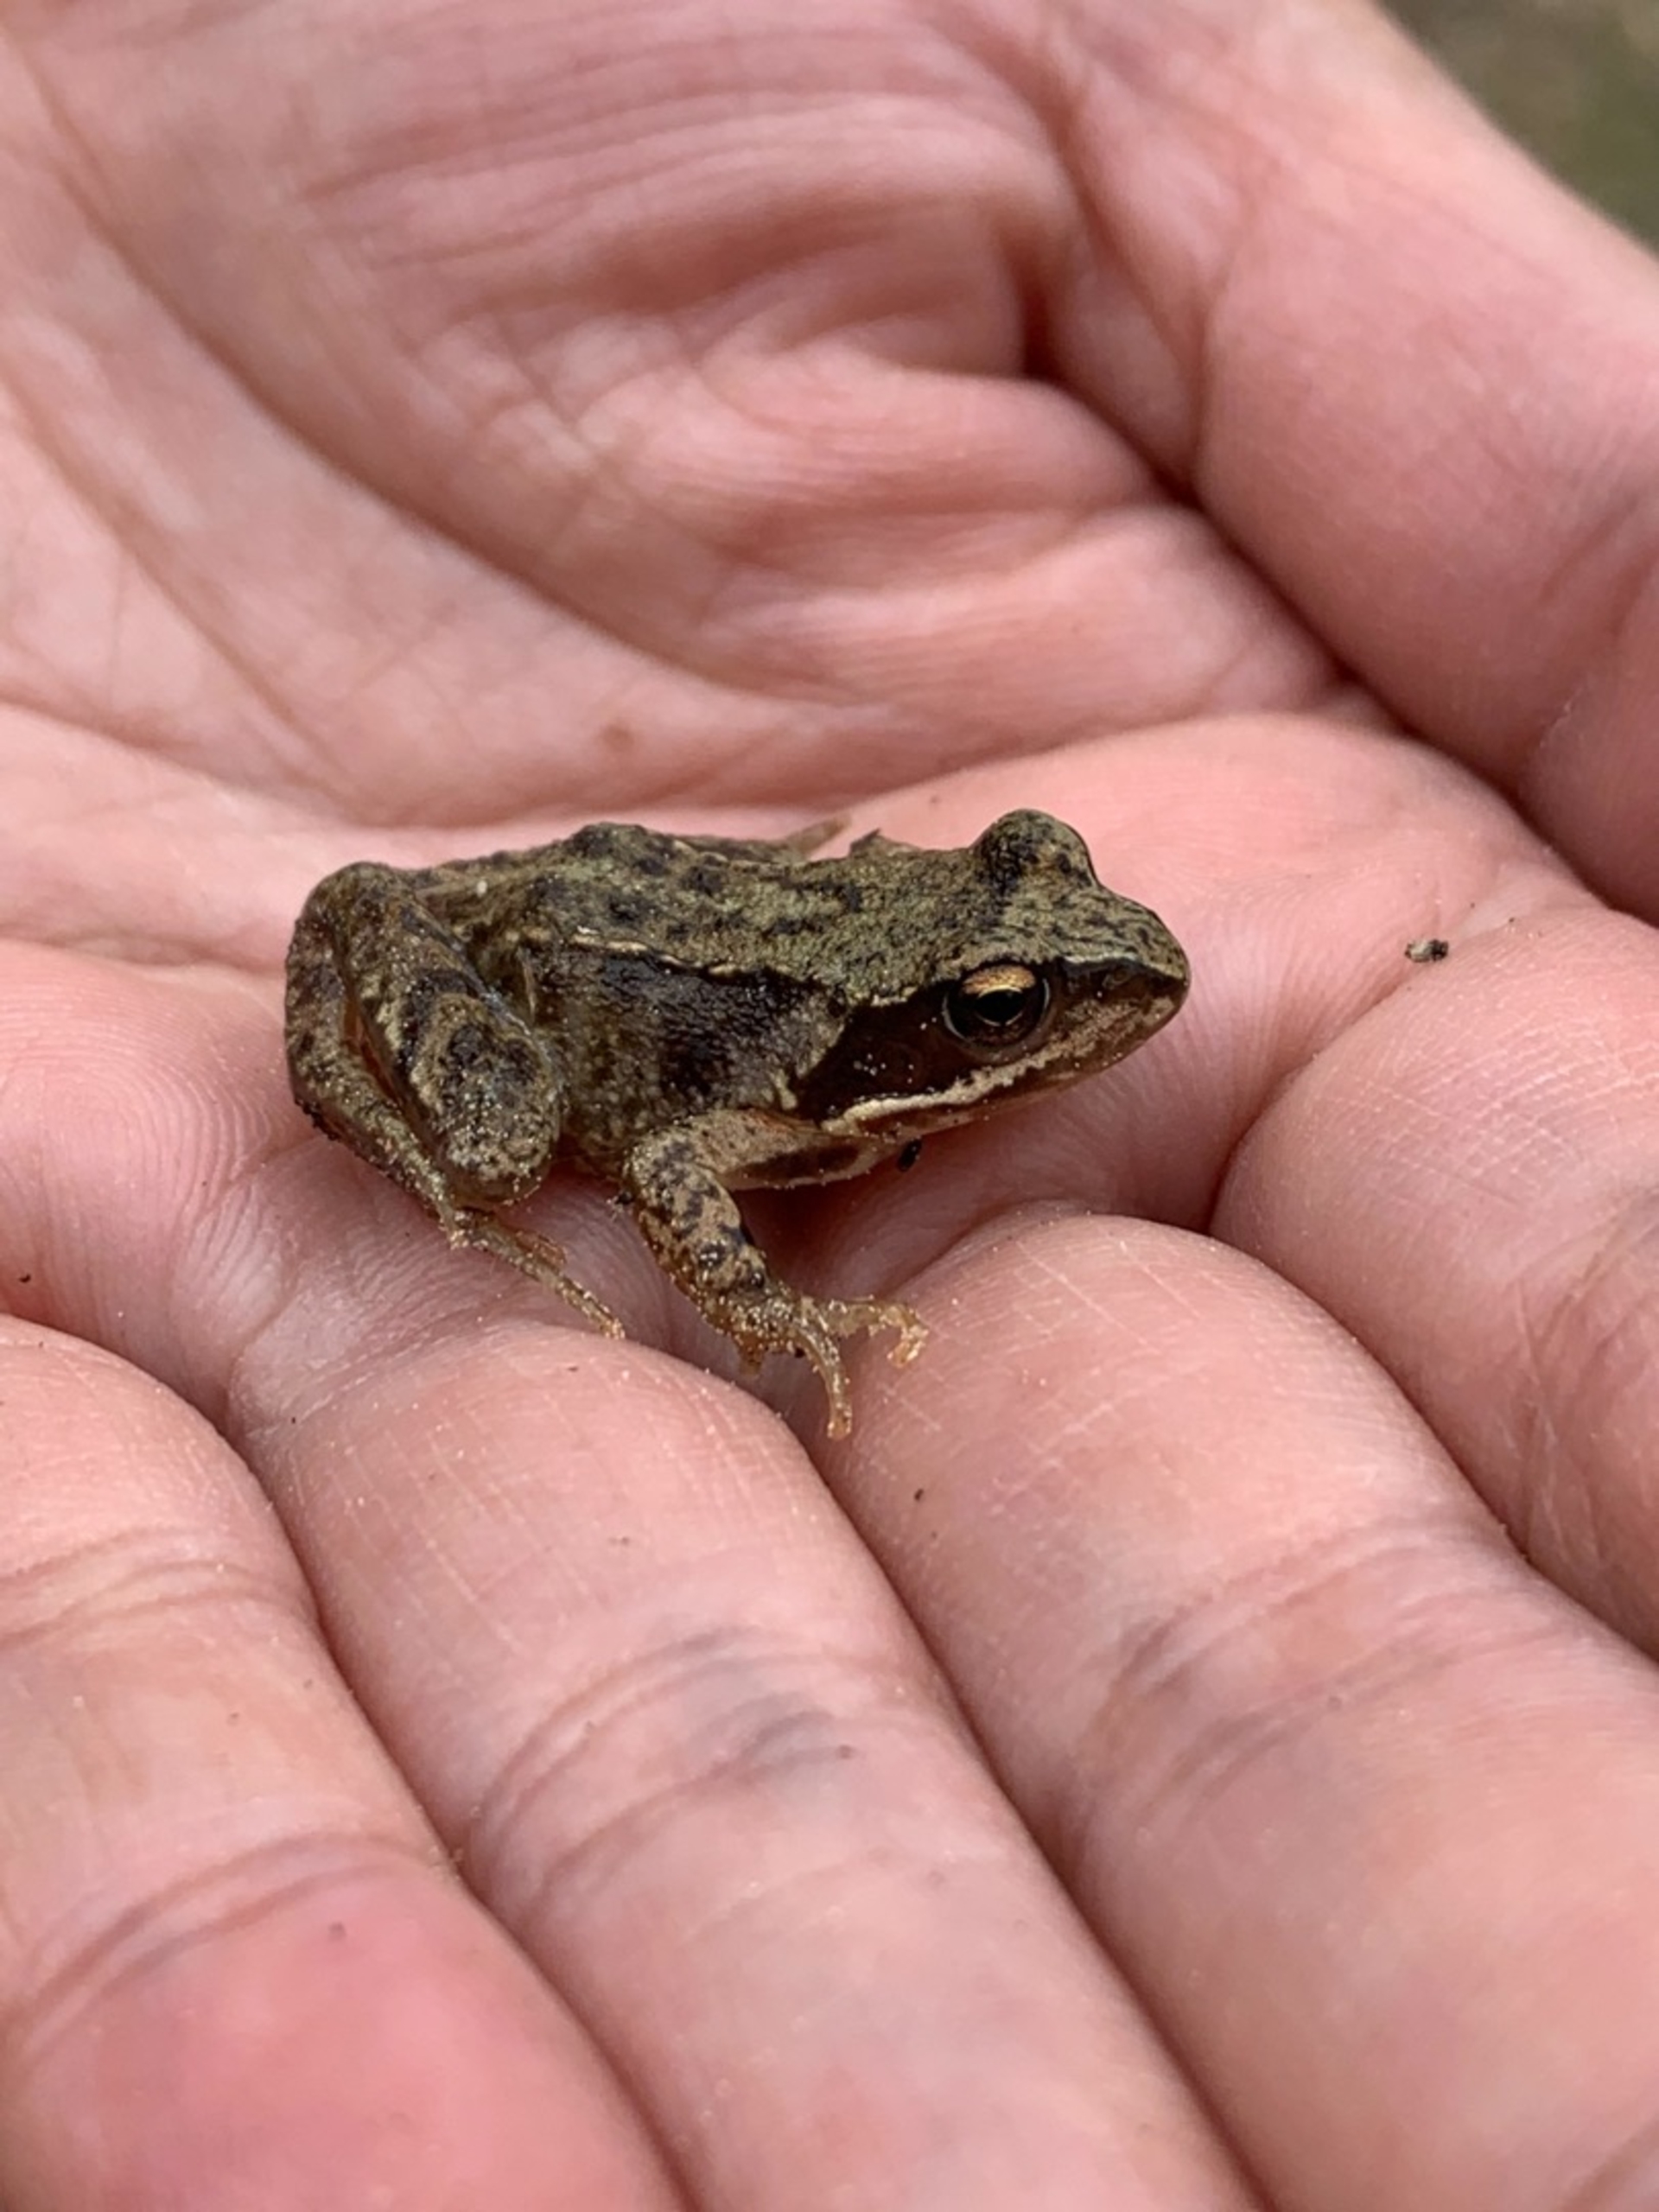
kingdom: Animalia
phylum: Chordata
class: Amphibia
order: Anura
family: Ranidae
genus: Rana
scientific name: Rana temporaria
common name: Butsnudet frø
